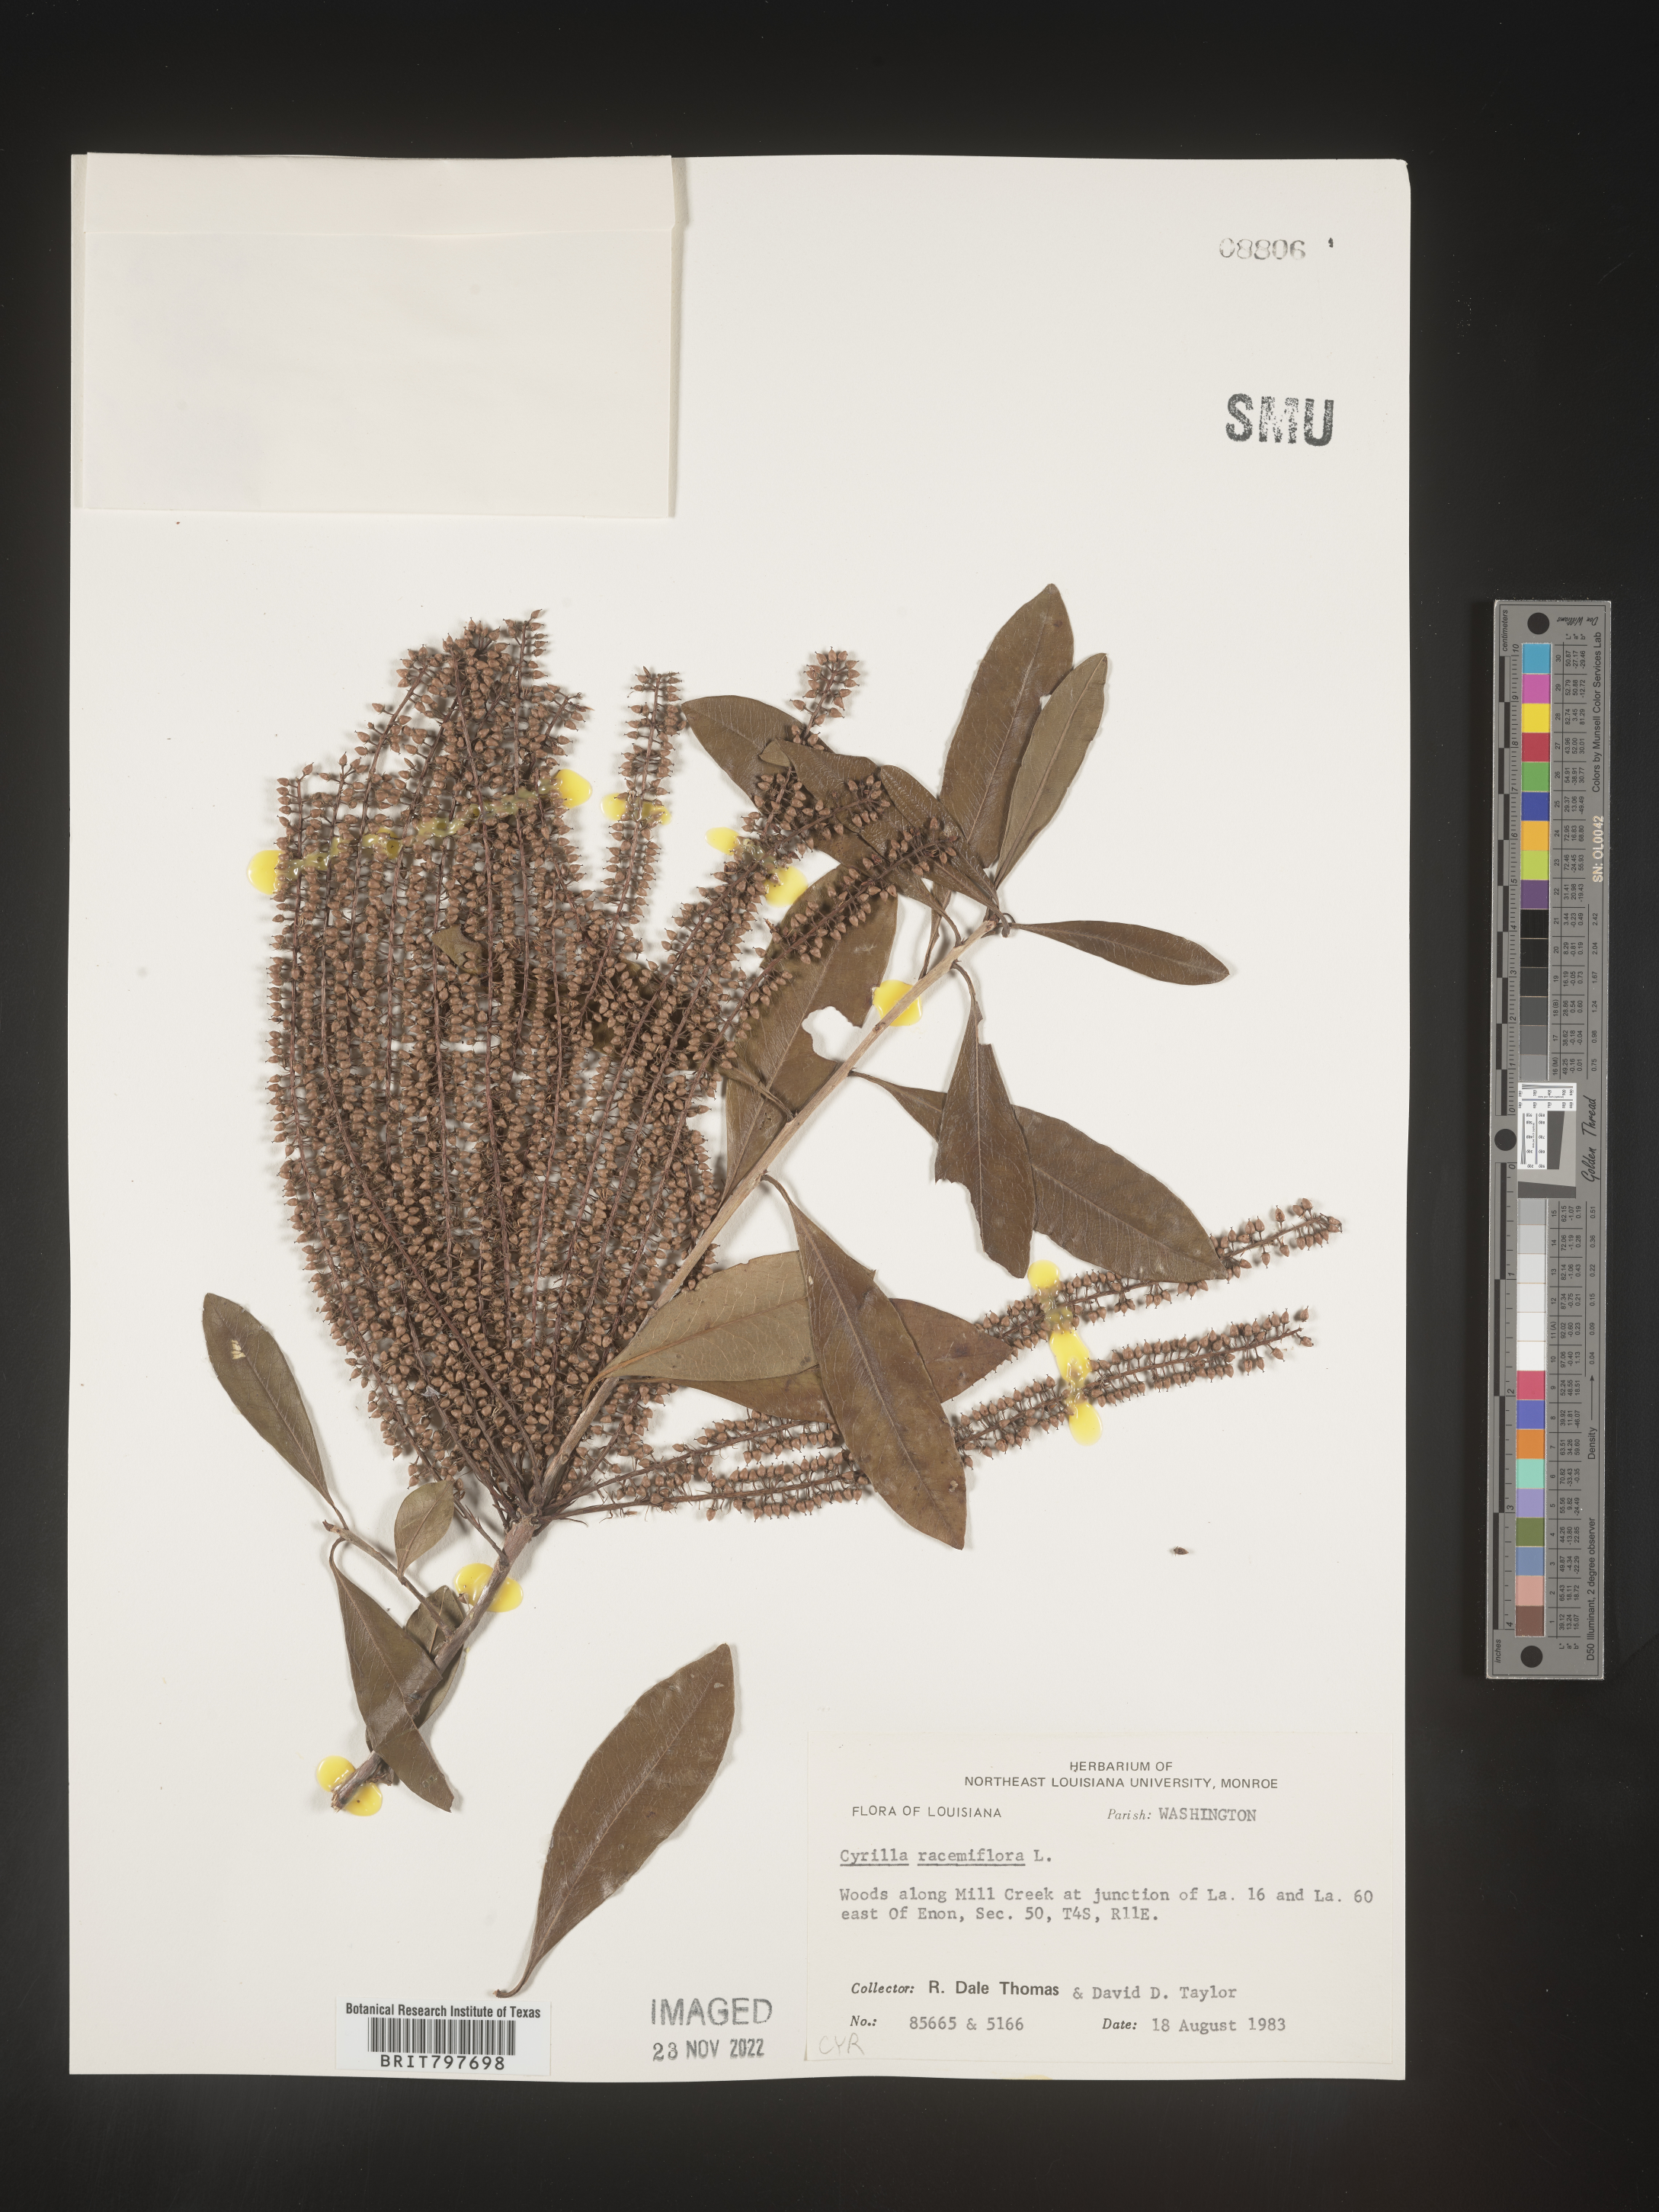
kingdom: Plantae
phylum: Tracheophyta
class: Magnoliopsida
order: Ericales
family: Cyrillaceae
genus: Cyrilla
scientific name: Cyrilla racemiflora
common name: Black titi
